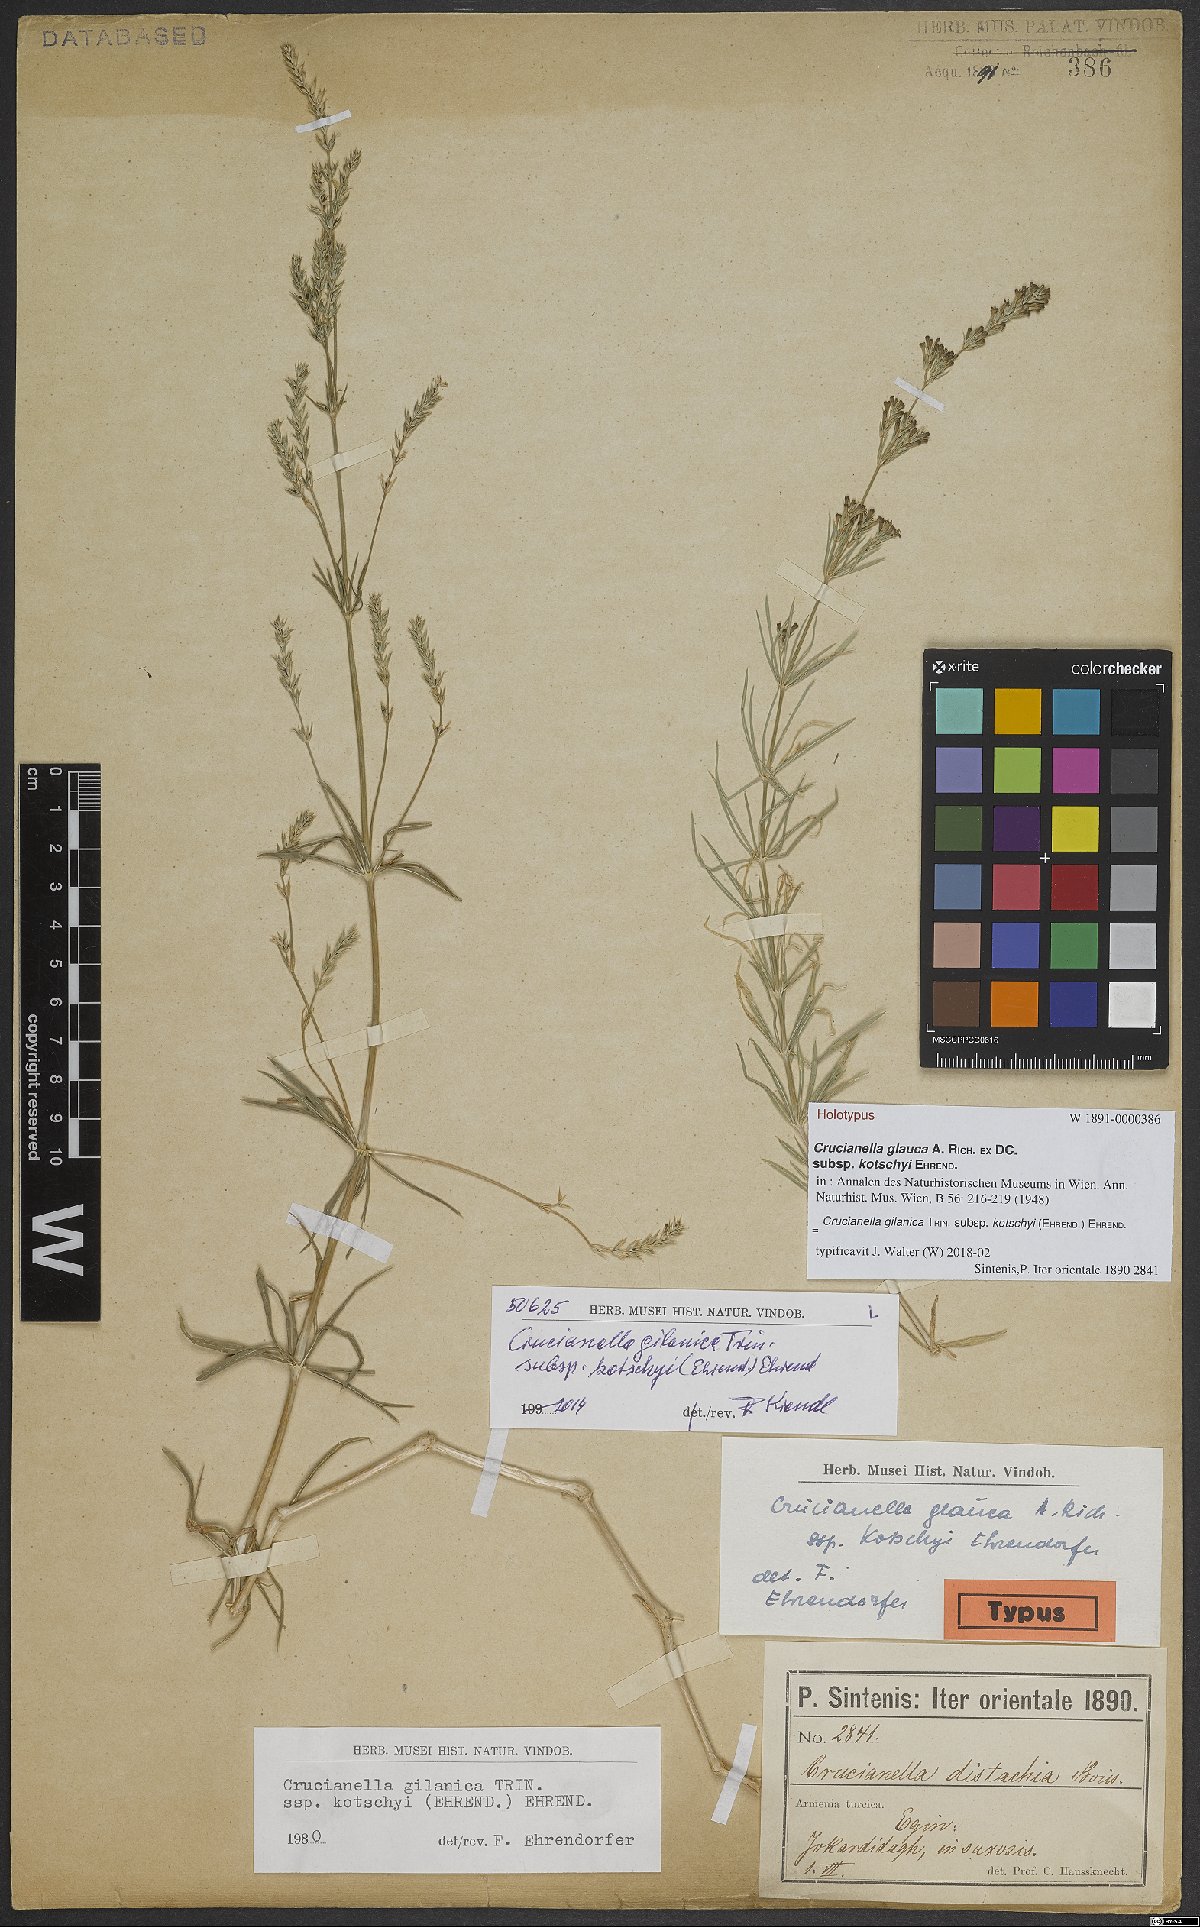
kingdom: Plantae
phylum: Tracheophyta
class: Magnoliopsida
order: Gentianales
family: Rubiaceae
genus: Crucianella
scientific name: Crucianella gilanica
